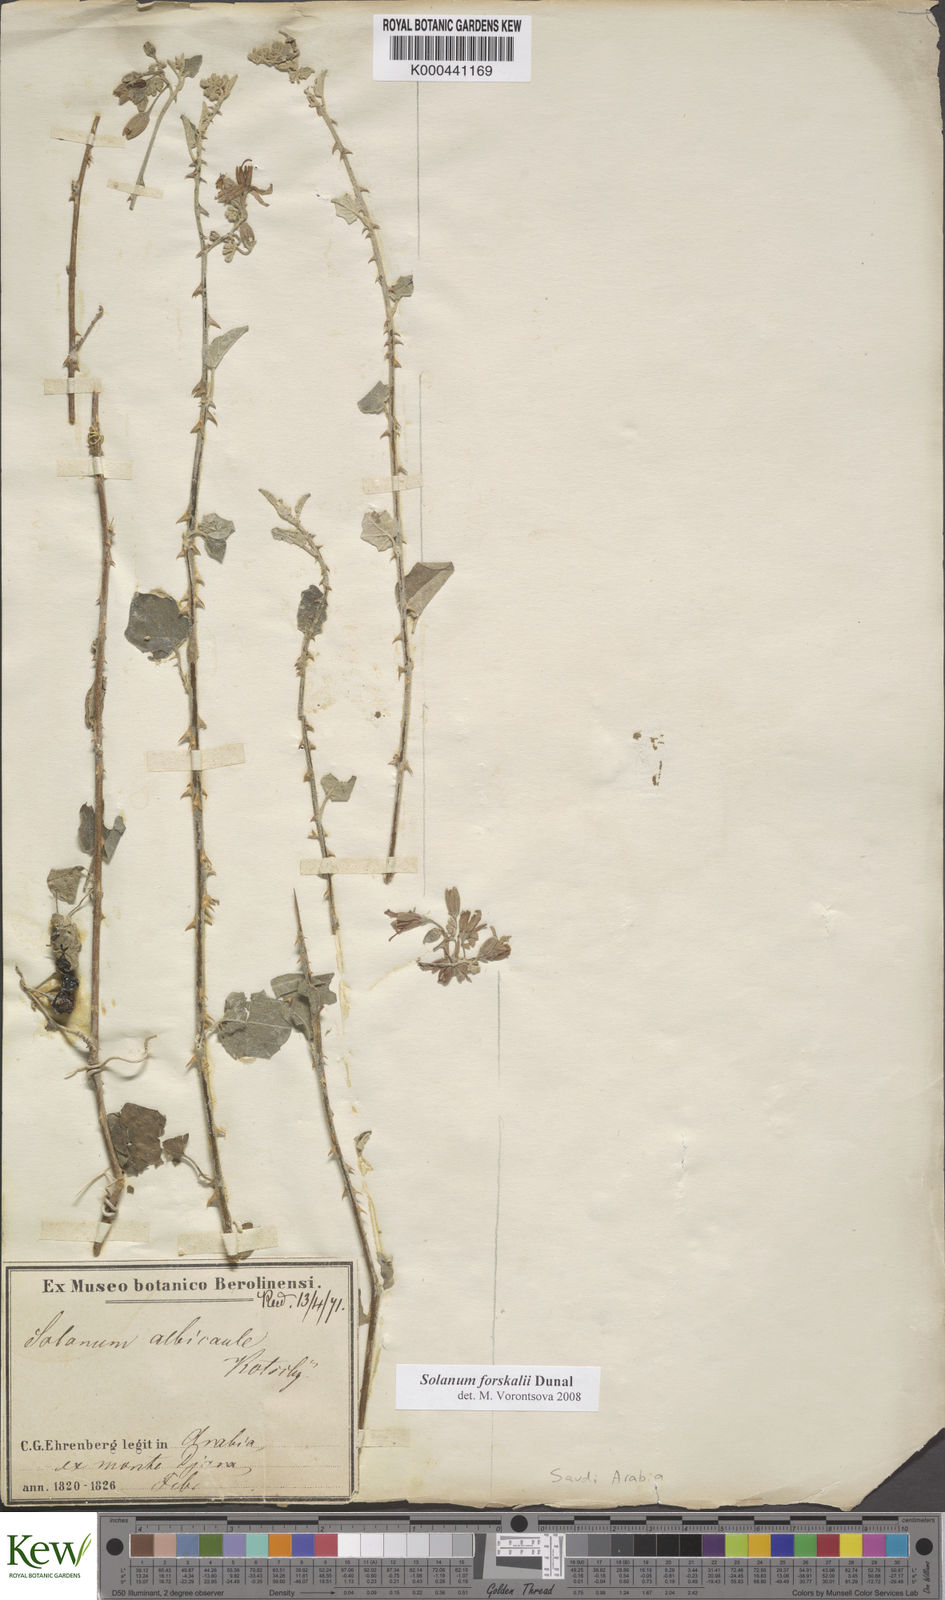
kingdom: Plantae
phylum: Tracheophyta
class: Magnoliopsida
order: Solanales
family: Solanaceae
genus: Solanum
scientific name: Solanum
